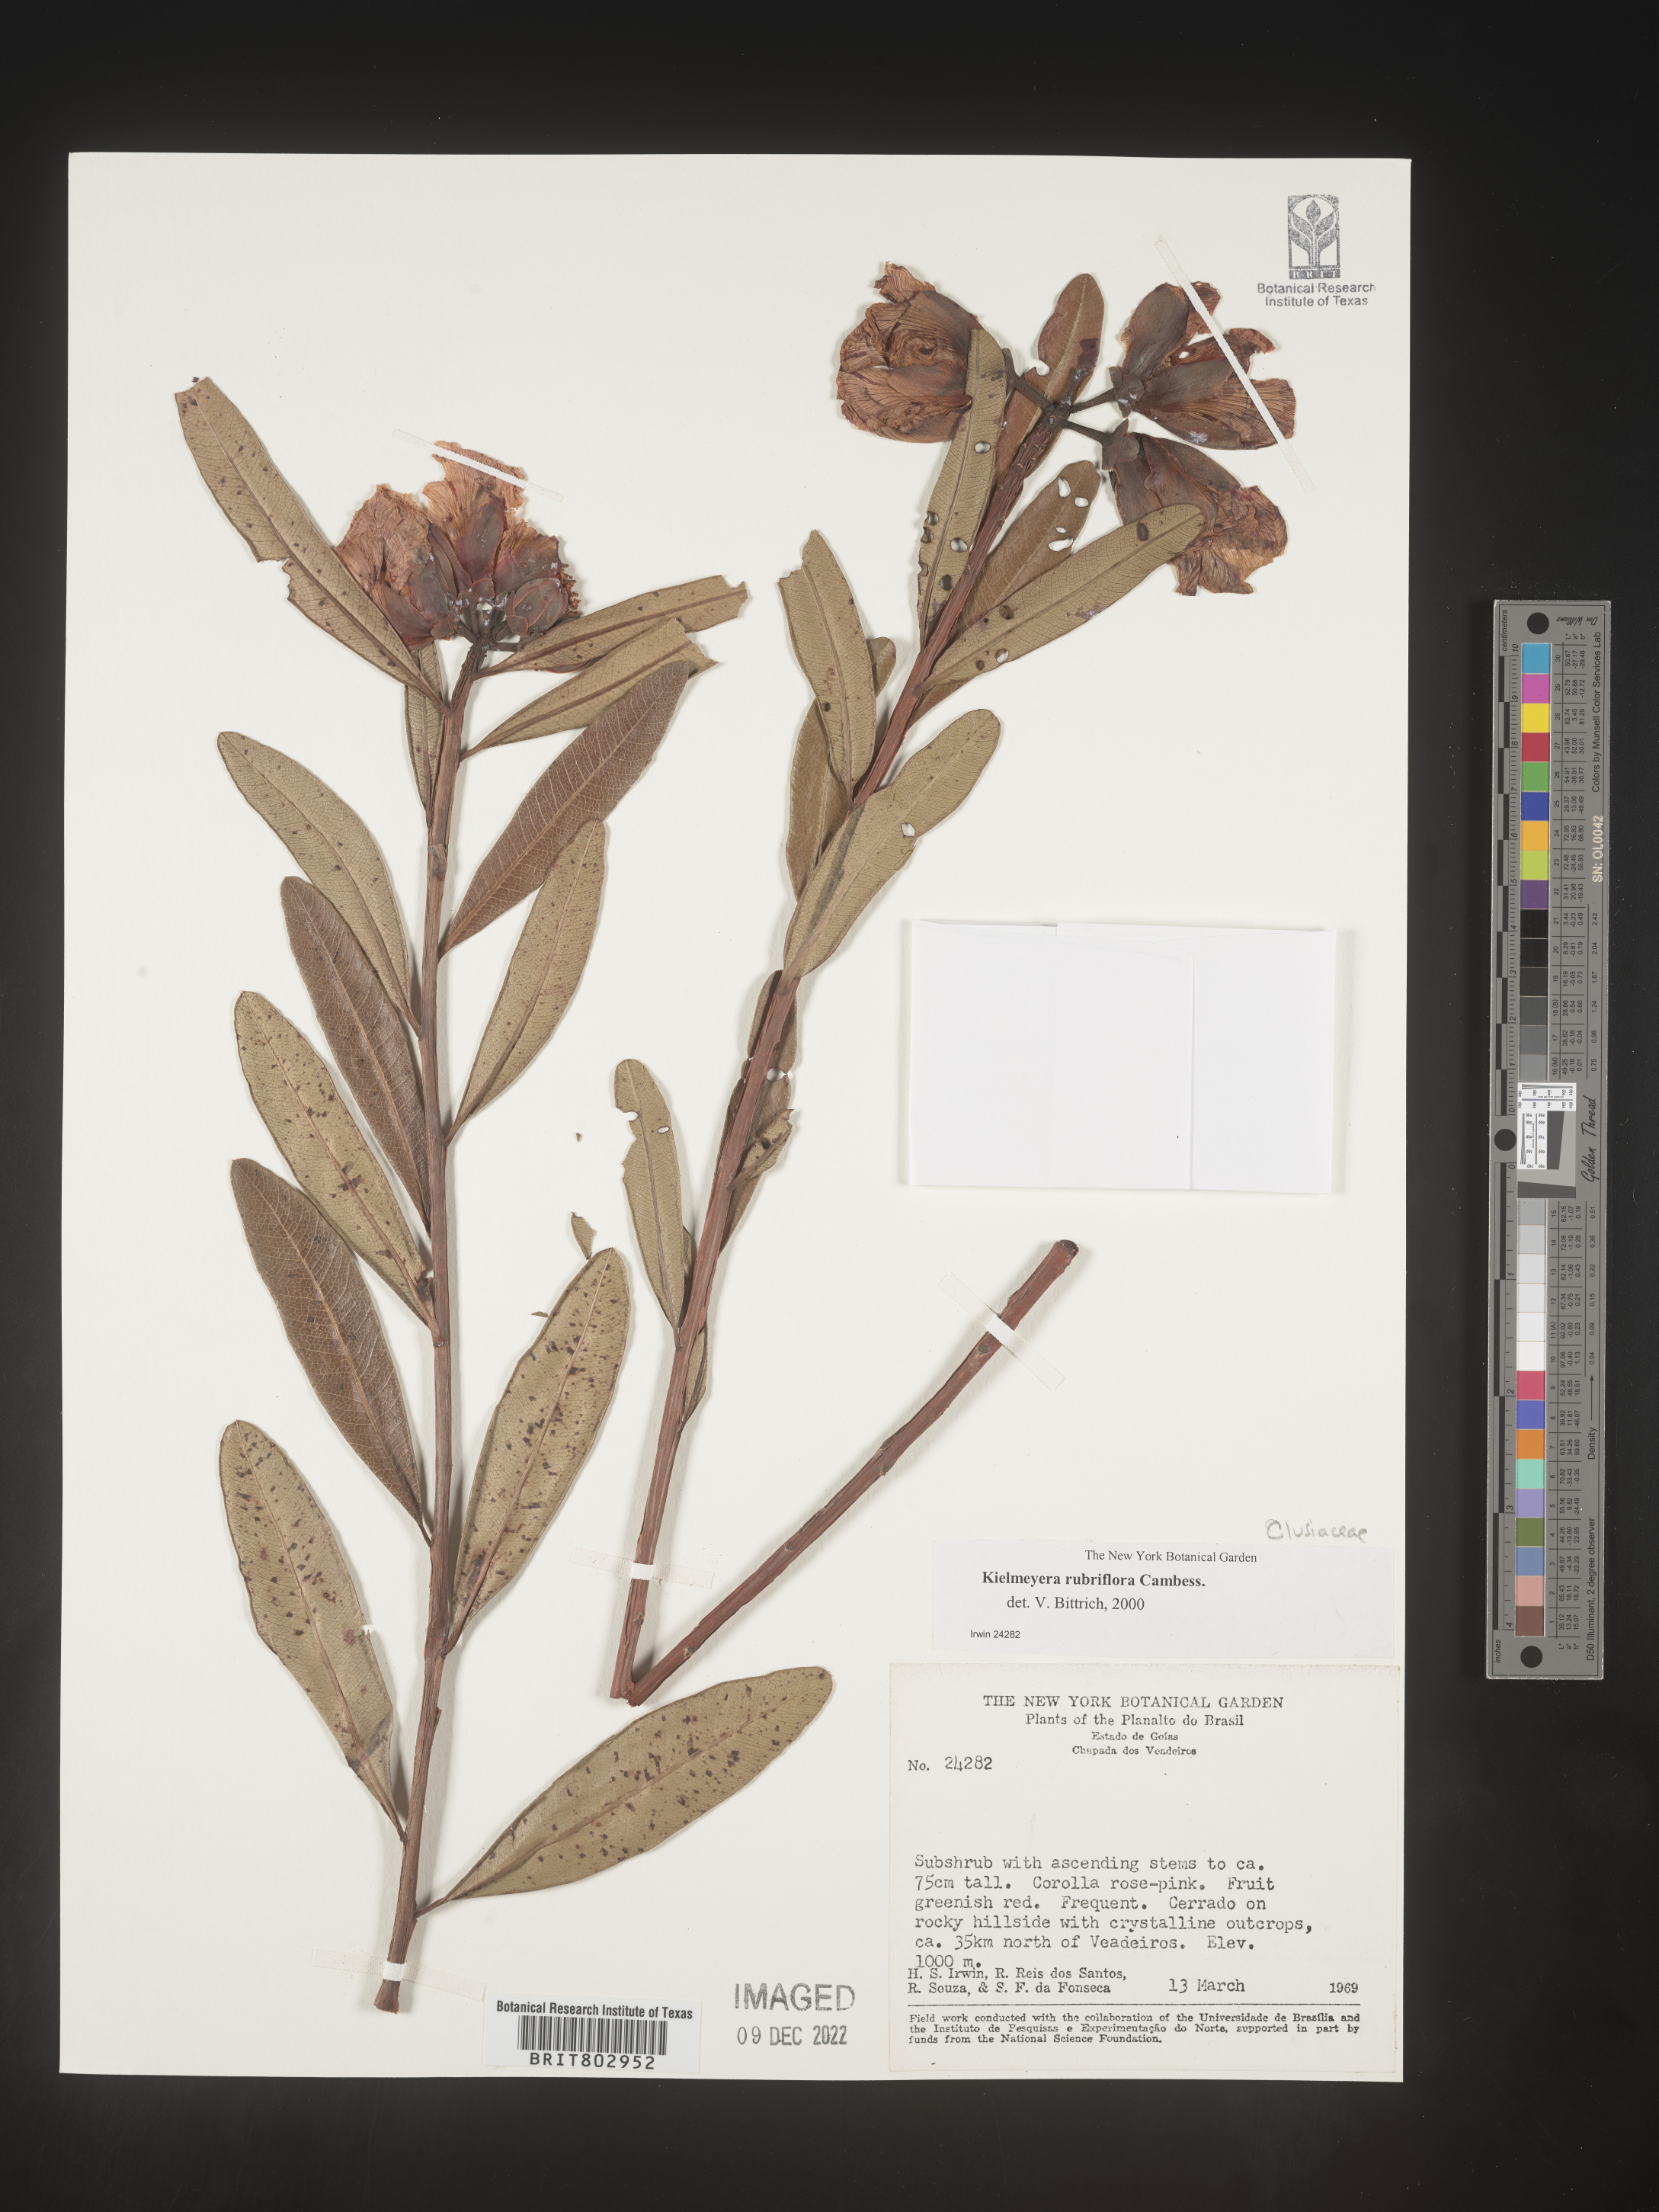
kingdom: Plantae
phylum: Tracheophyta
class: Magnoliopsida
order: Malpighiales
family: Calophyllaceae
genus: Kielmeyera
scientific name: Kielmeyera
